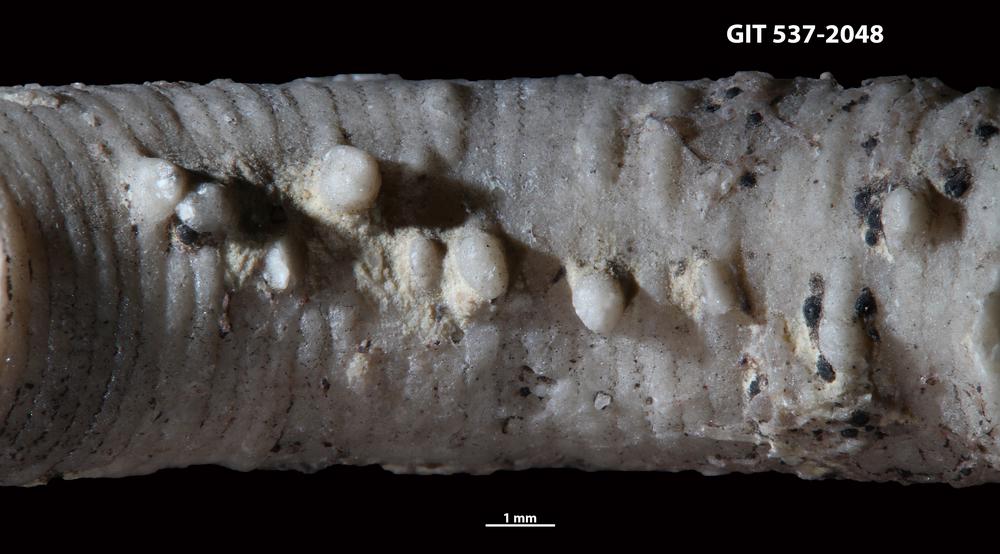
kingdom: Animalia
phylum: Echinodermata
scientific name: Echinodermata
